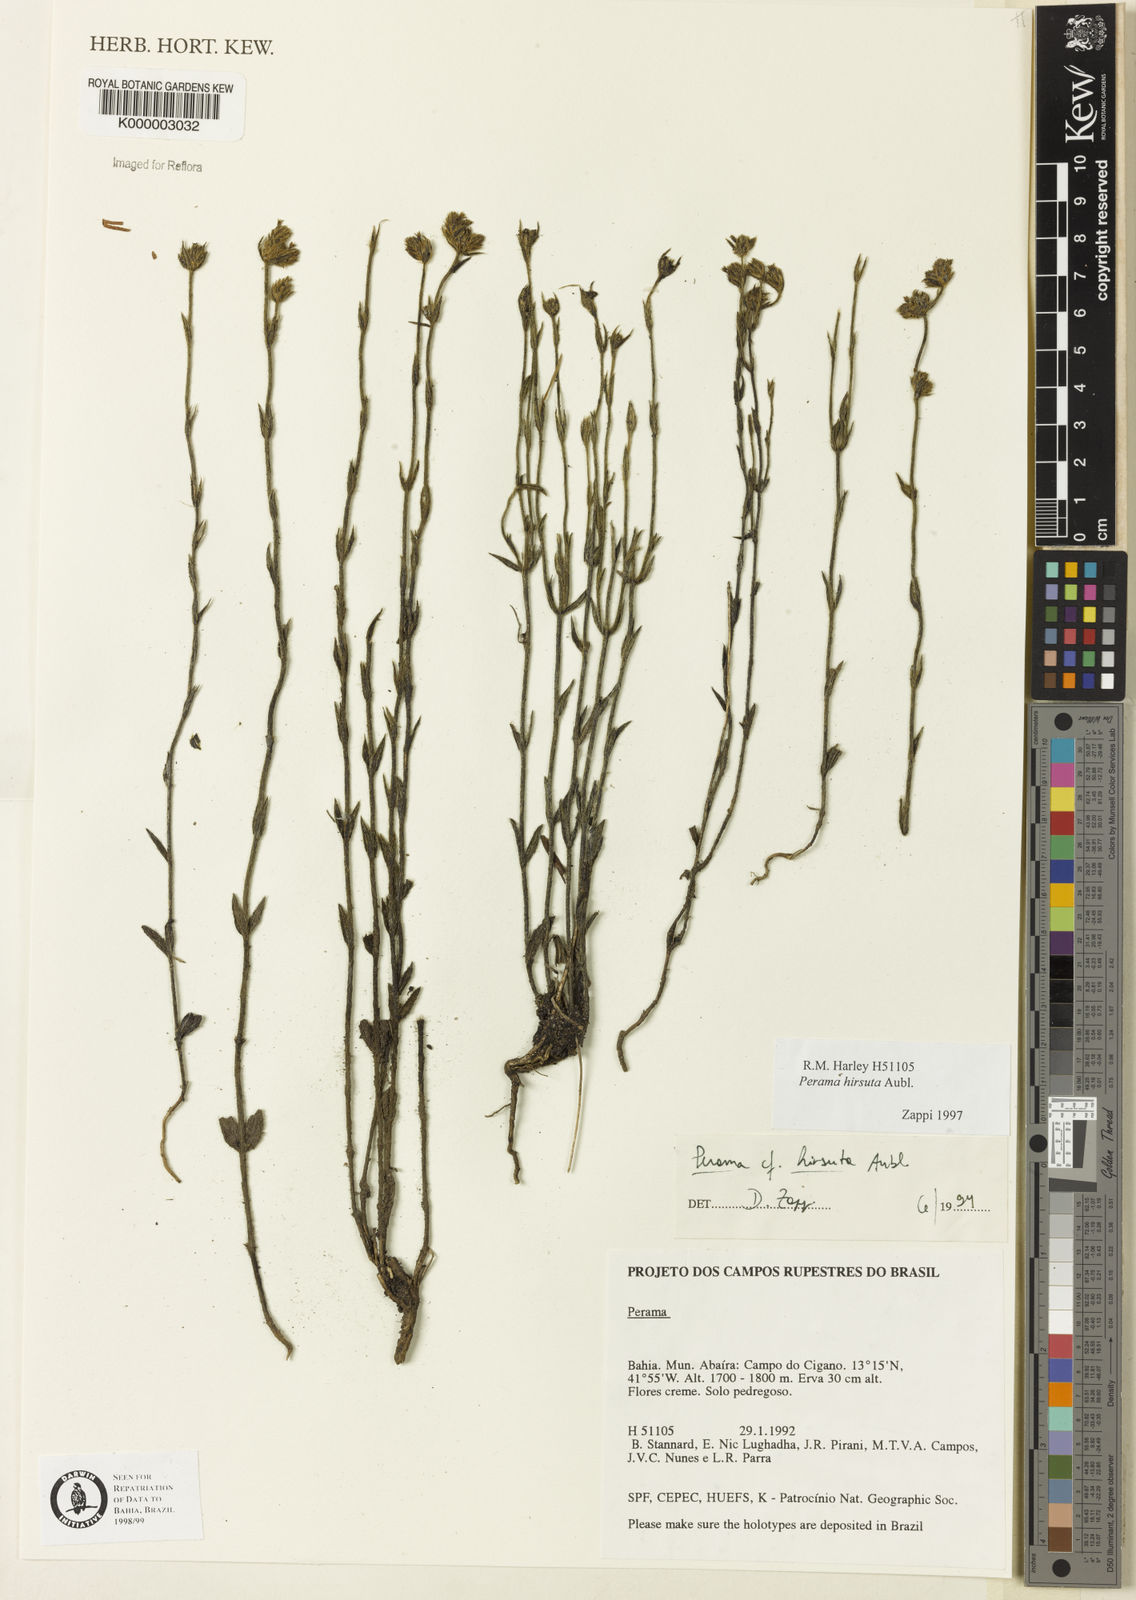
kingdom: Plantae
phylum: Tracheophyta
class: Magnoliopsida
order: Gentianales
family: Rubiaceae
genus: Perama
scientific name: Perama hirsuta
